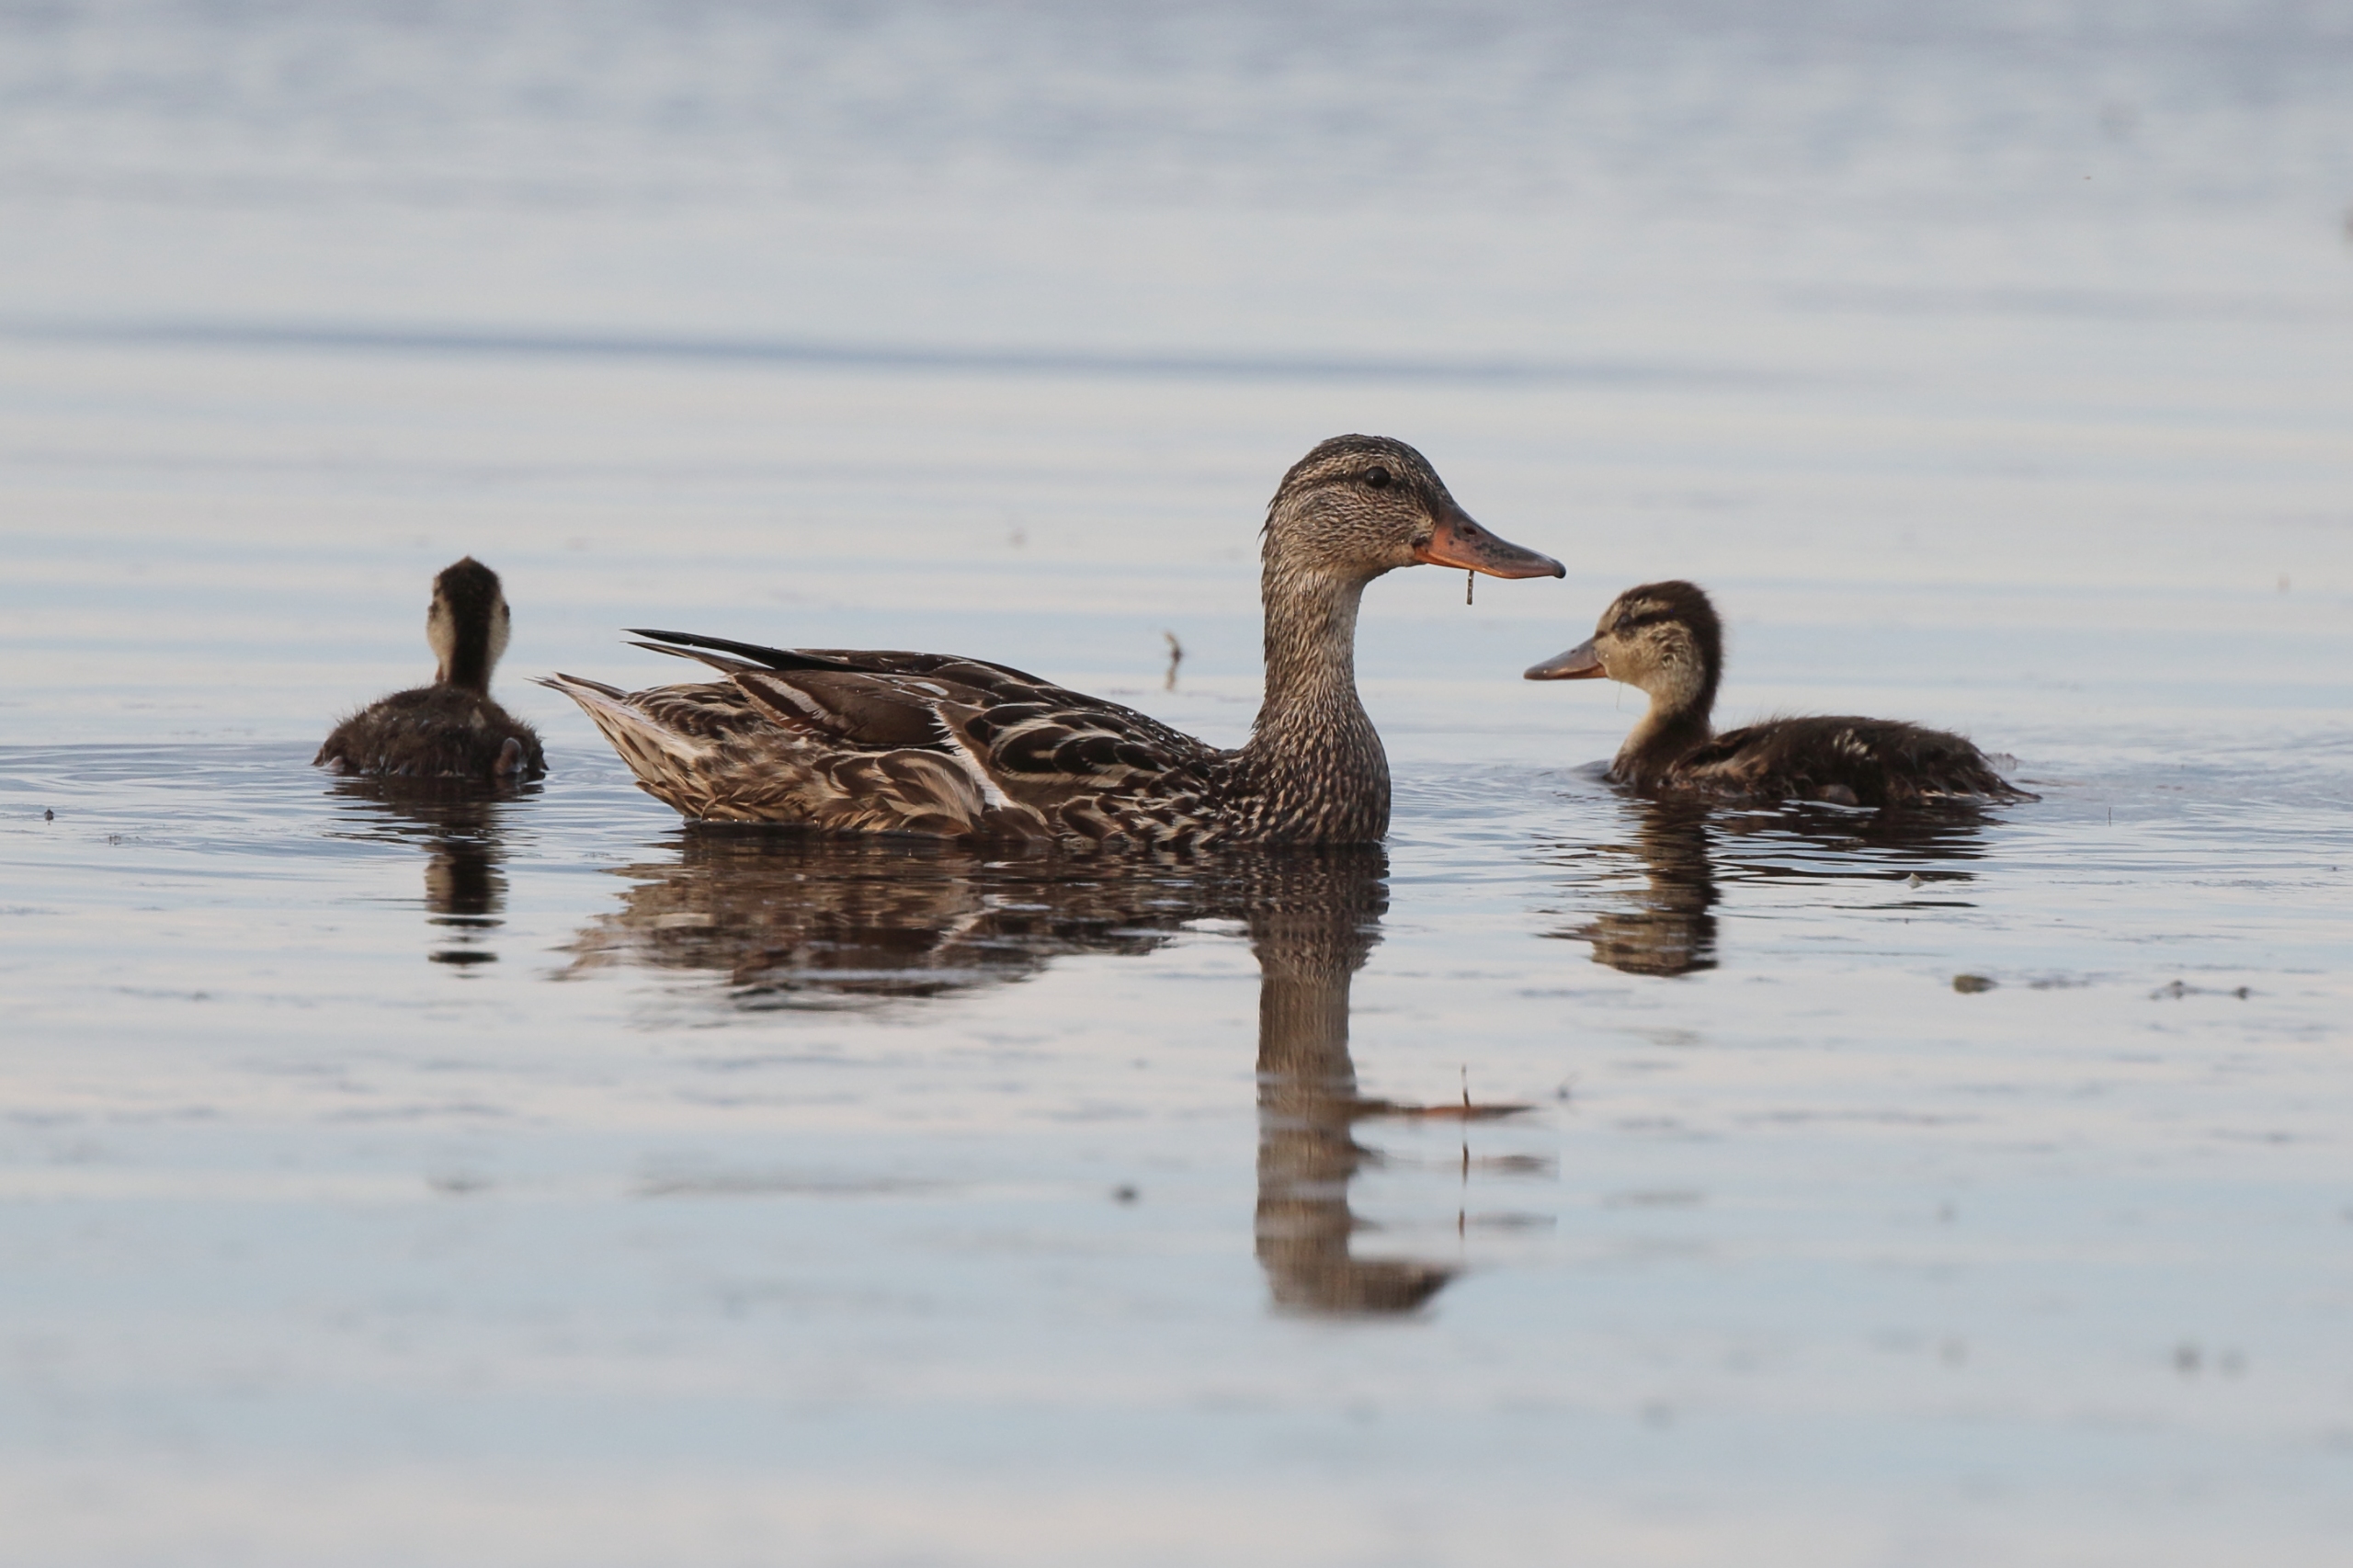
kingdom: Animalia
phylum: Chordata
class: Aves
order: Anseriformes
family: Anatidae
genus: Anas
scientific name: Anas platyrhynchos
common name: Gråand
